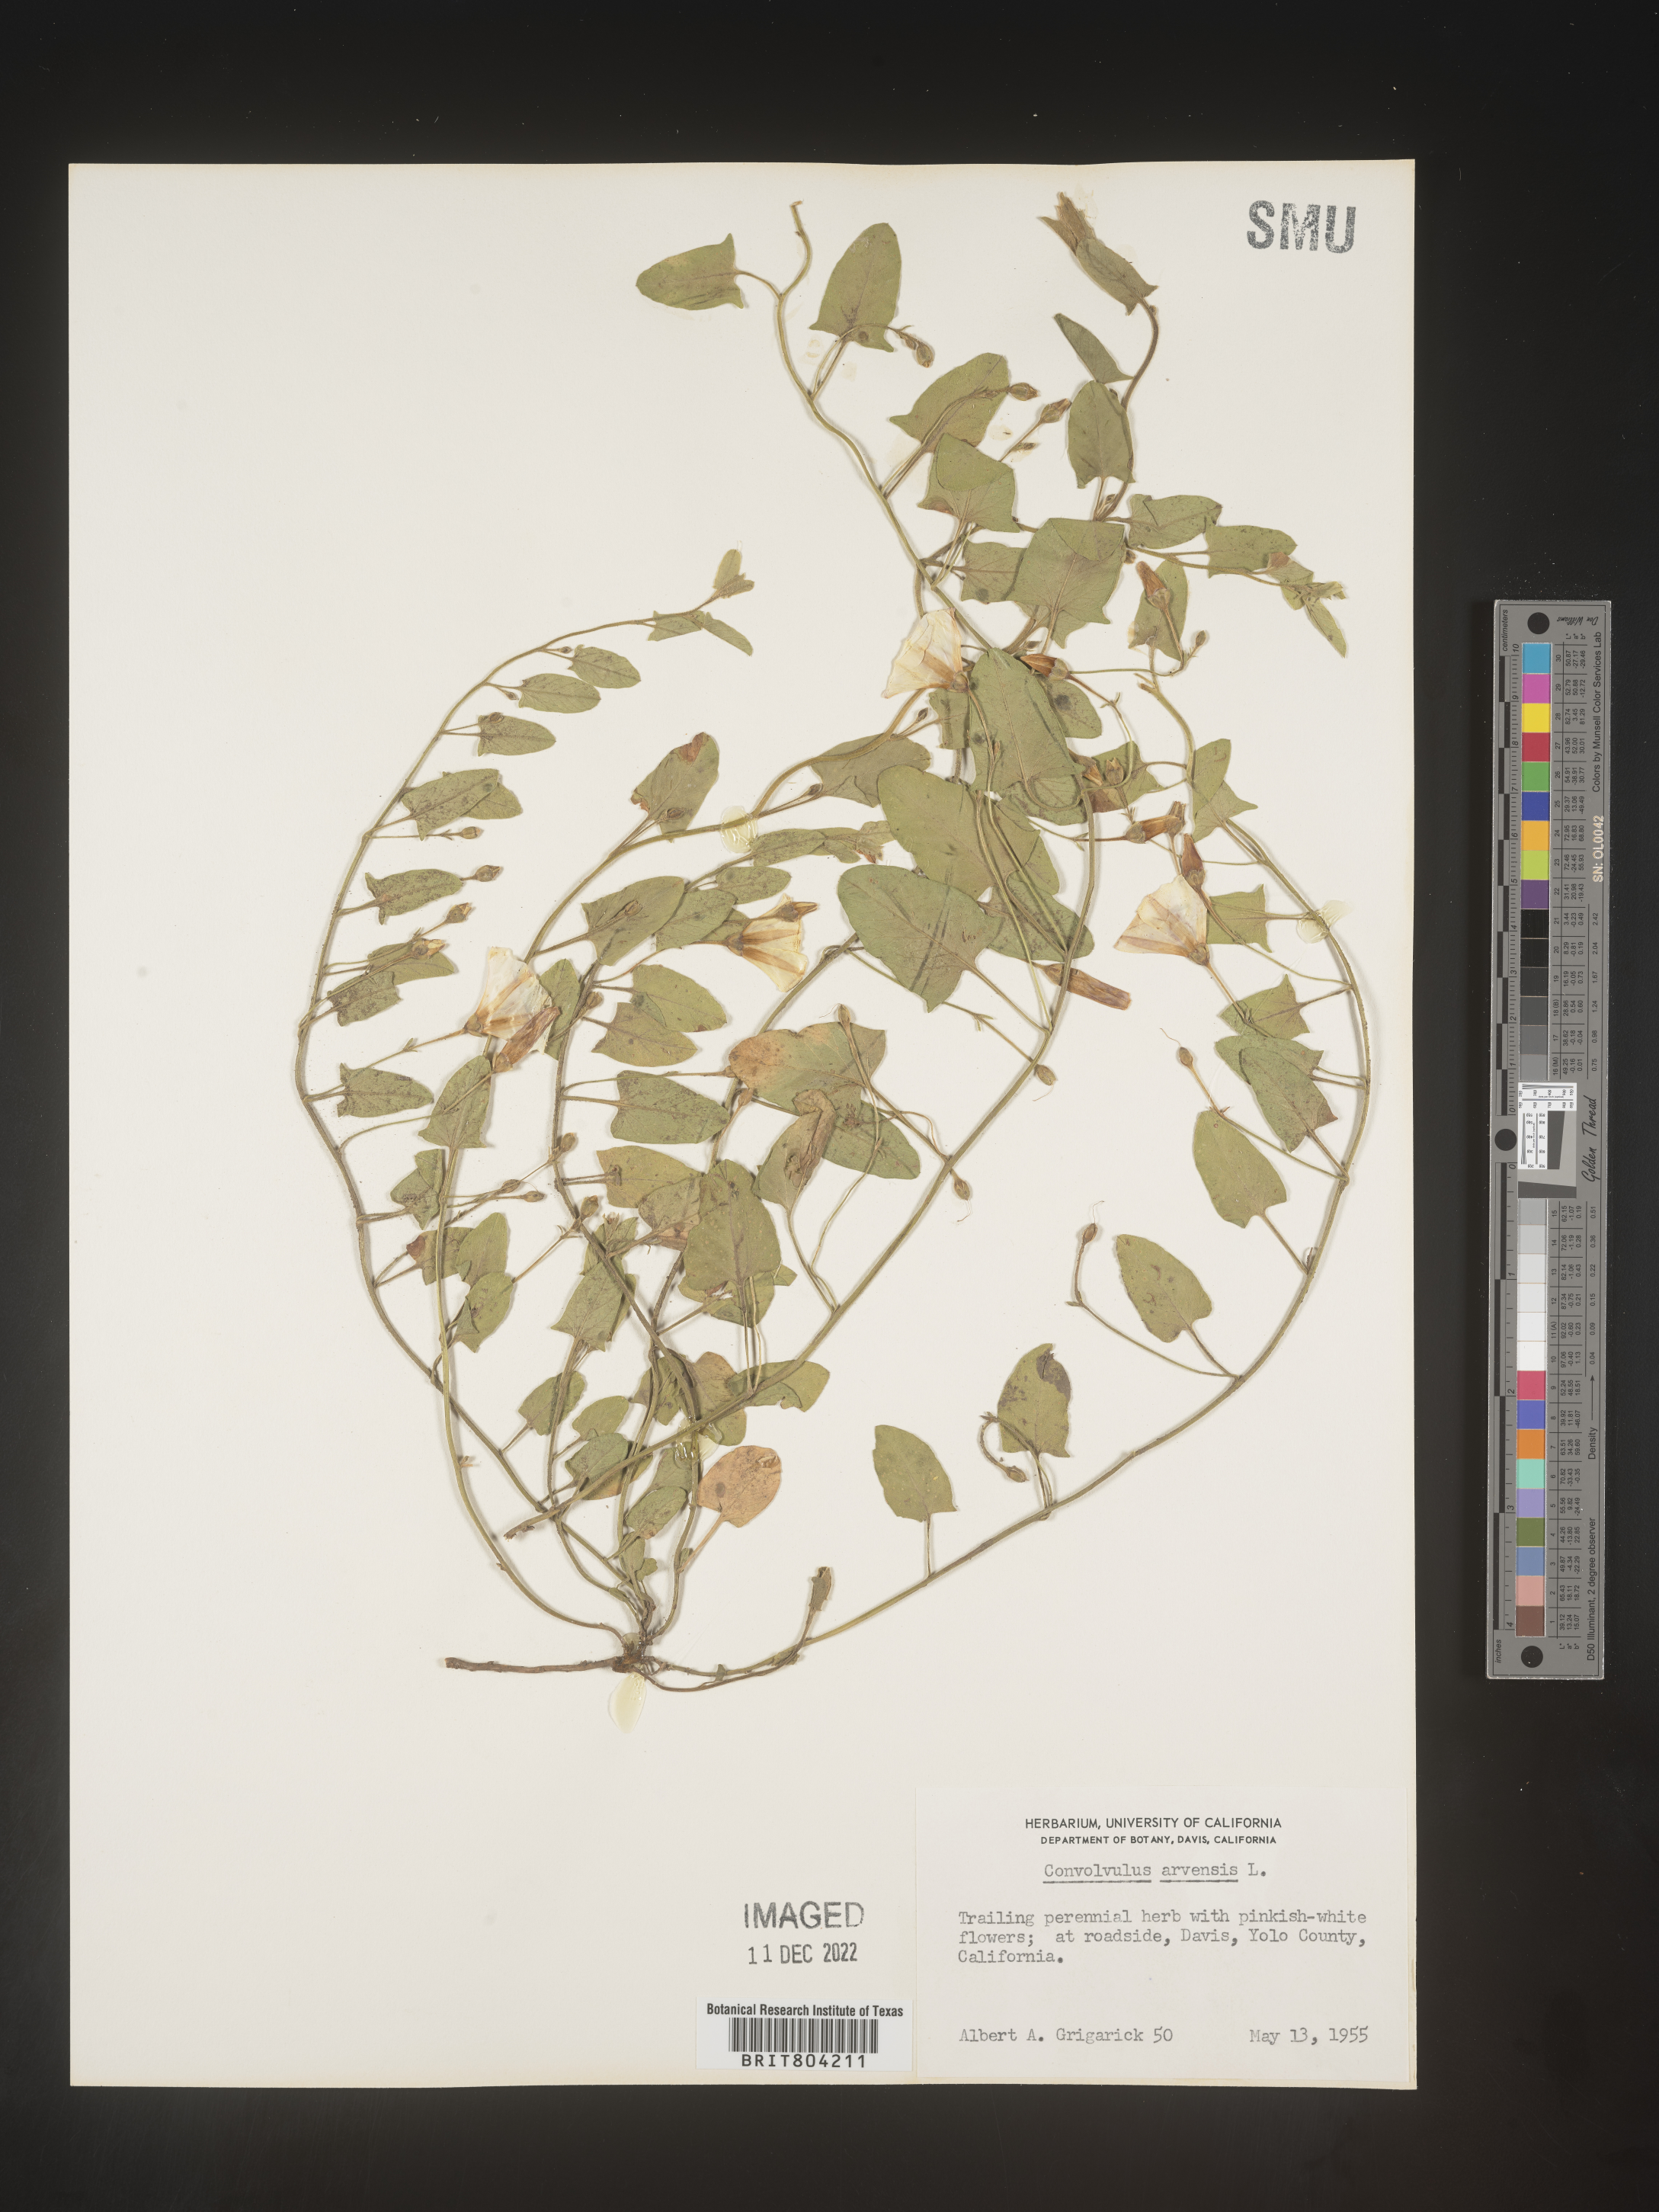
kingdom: Plantae
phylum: Tracheophyta
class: Magnoliopsida
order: Solanales
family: Convolvulaceae
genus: Convolvulus
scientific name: Convolvulus arvensis
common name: Field bindweed
